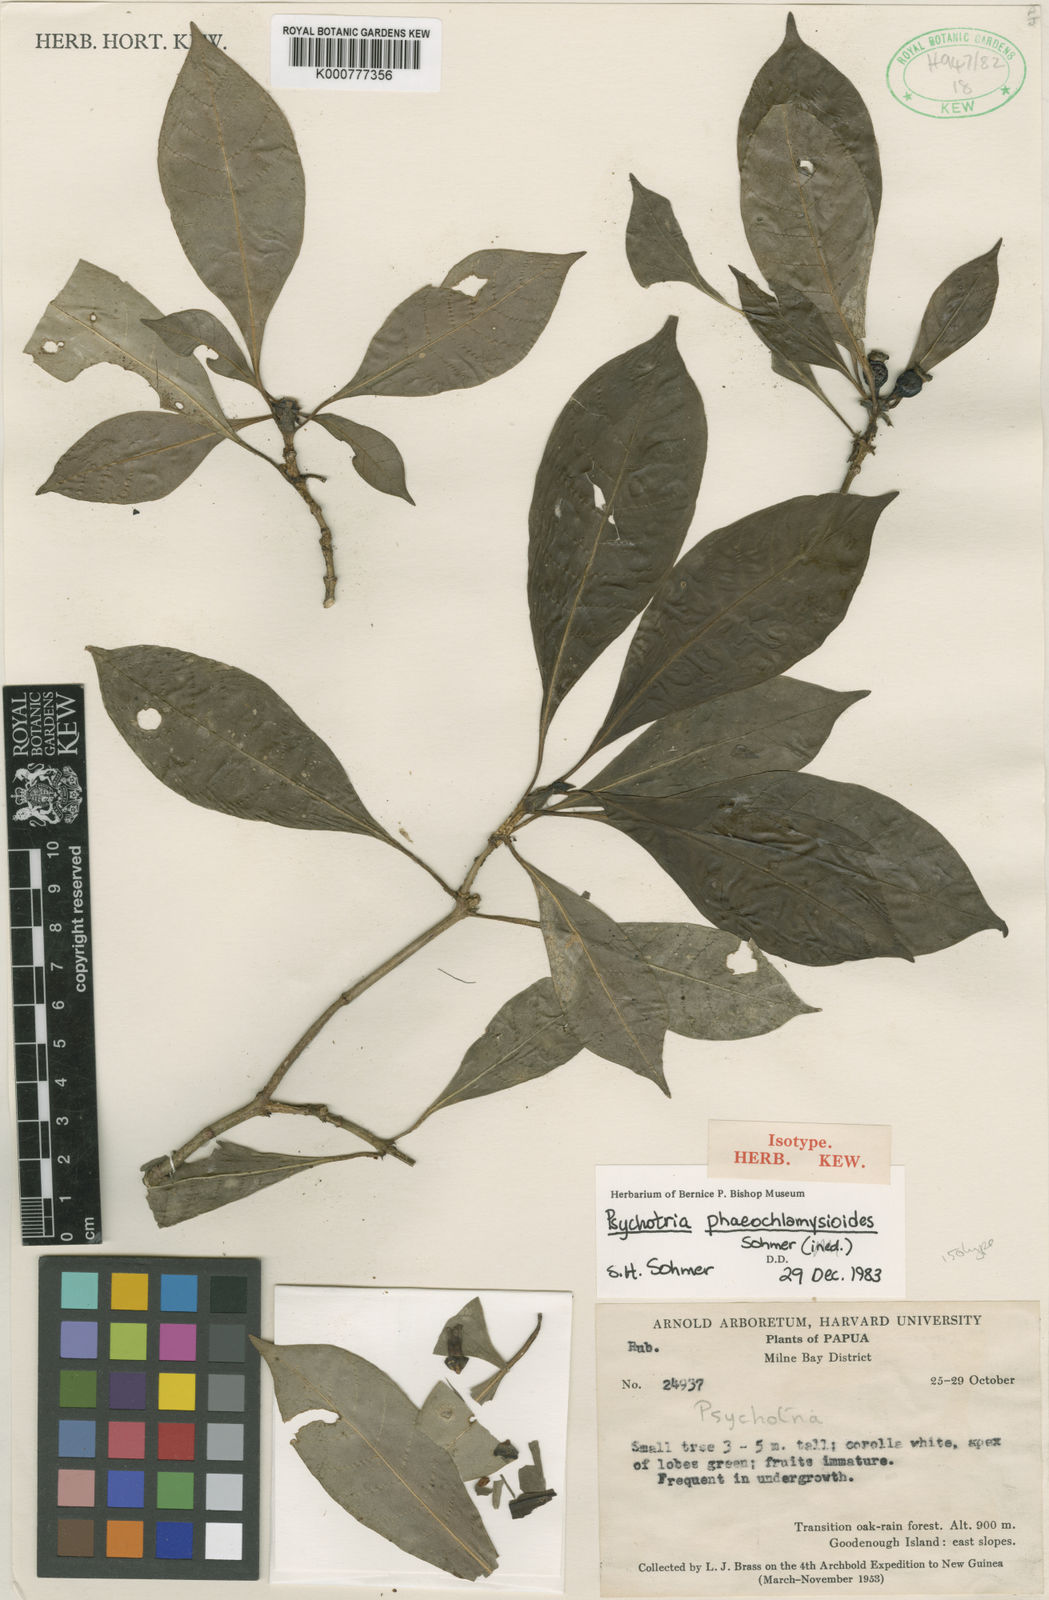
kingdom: Plantae
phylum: Tracheophyta
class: Magnoliopsida
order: Gentianales
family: Rubiaceae
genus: Psychotria
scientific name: Psychotria phaeochlamysioides
